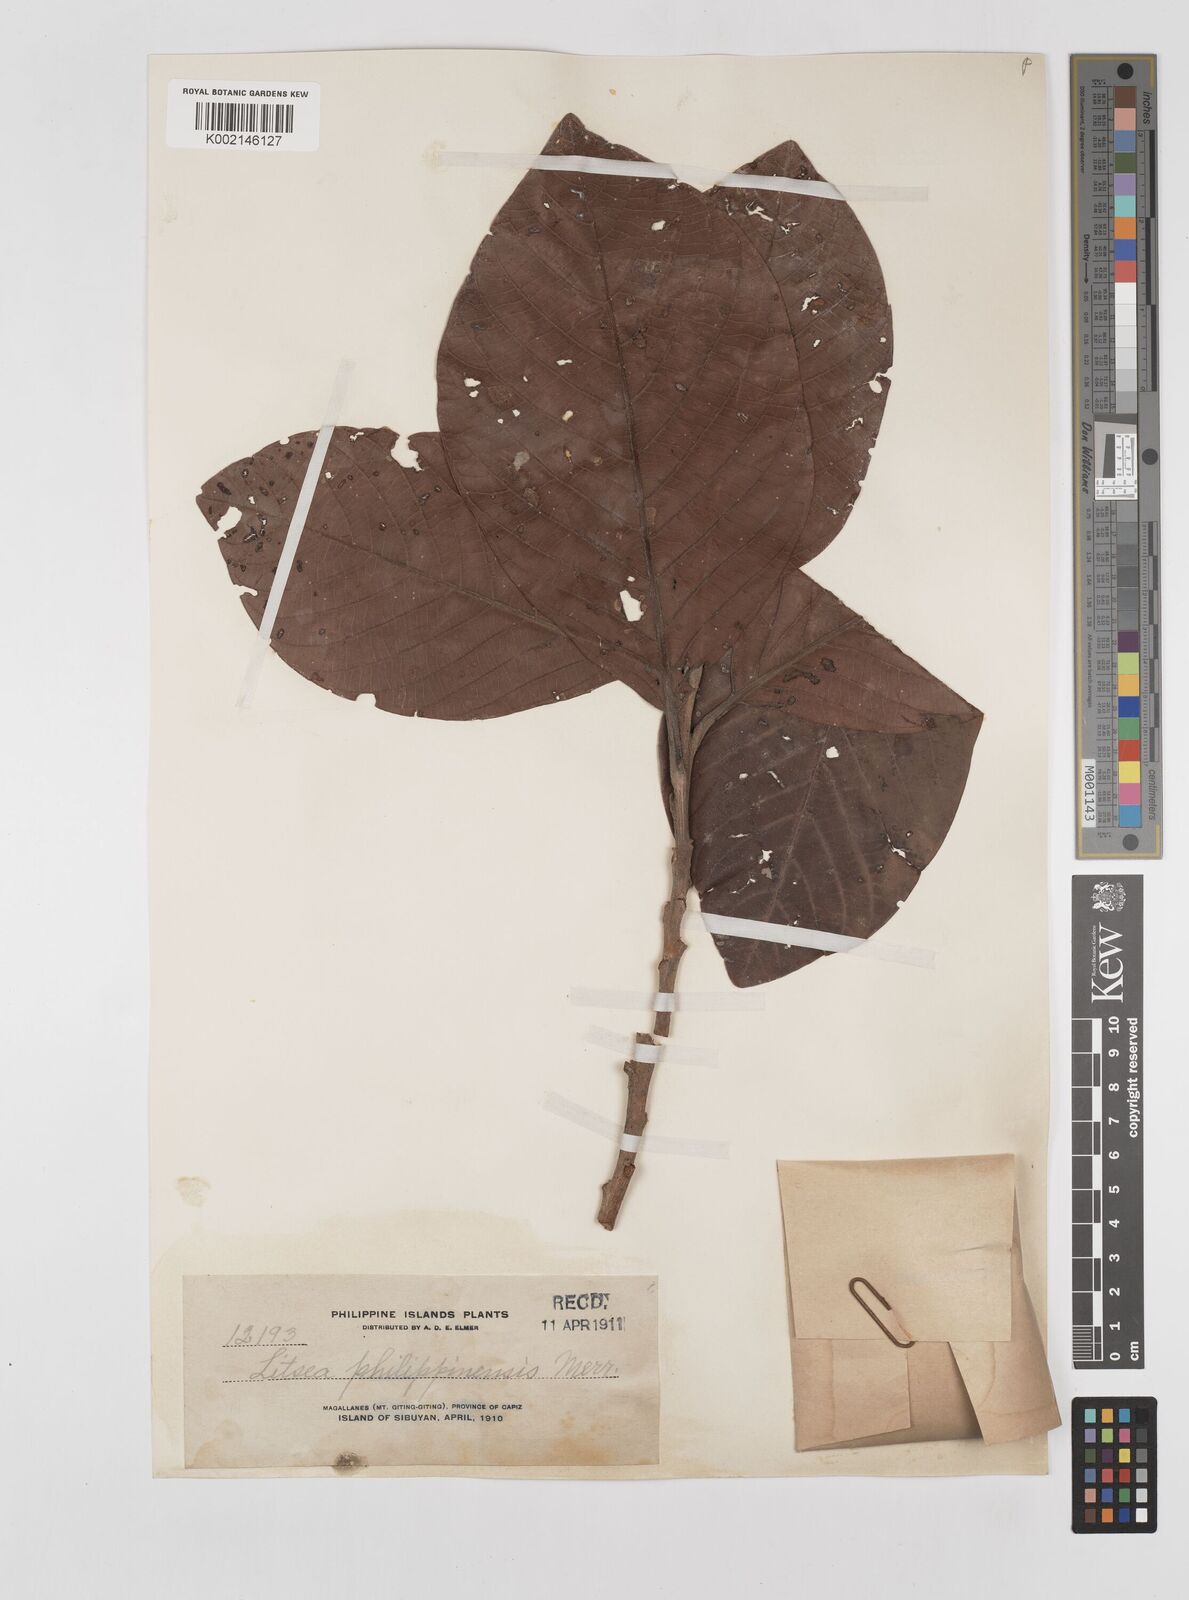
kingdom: Plantae
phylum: Tracheophyta
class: Magnoliopsida
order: Laurales
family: Lauraceae
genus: Litsea
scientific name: Litsea philippinensis
